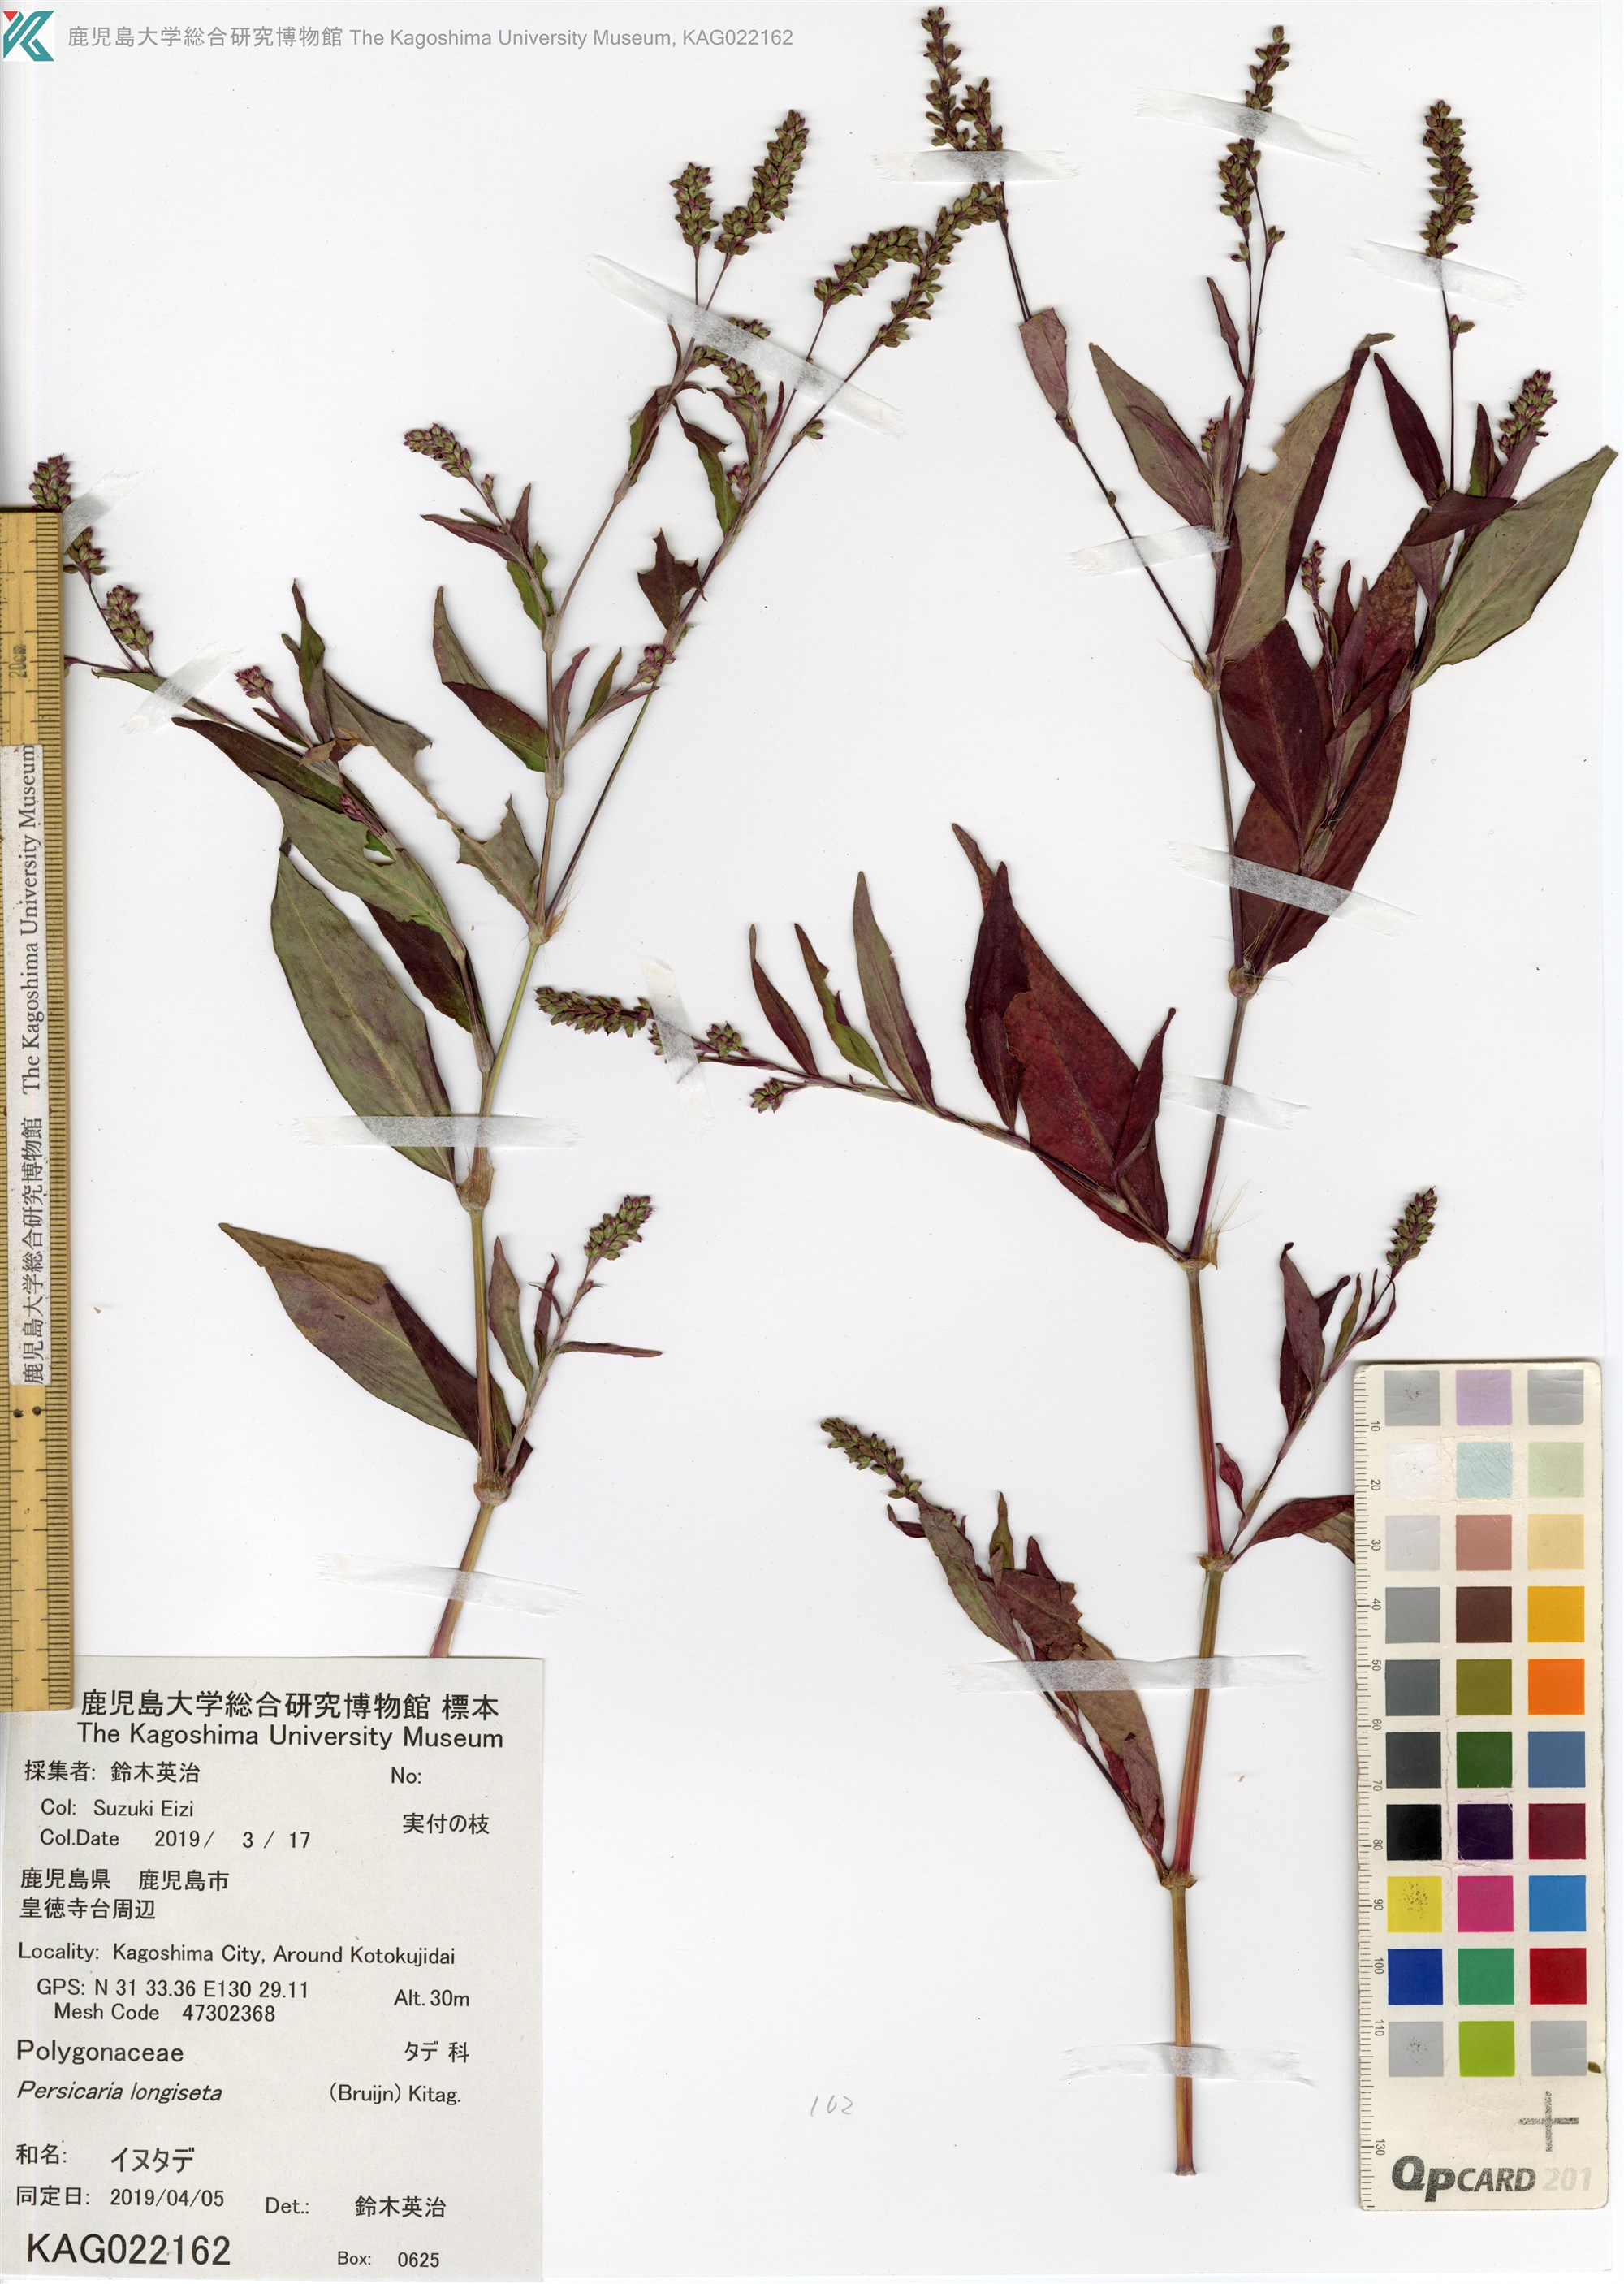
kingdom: Plantae
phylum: Tracheophyta
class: Magnoliopsida
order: Caryophyllales
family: Polygonaceae
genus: Persicaria
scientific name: Persicaria longiseta
